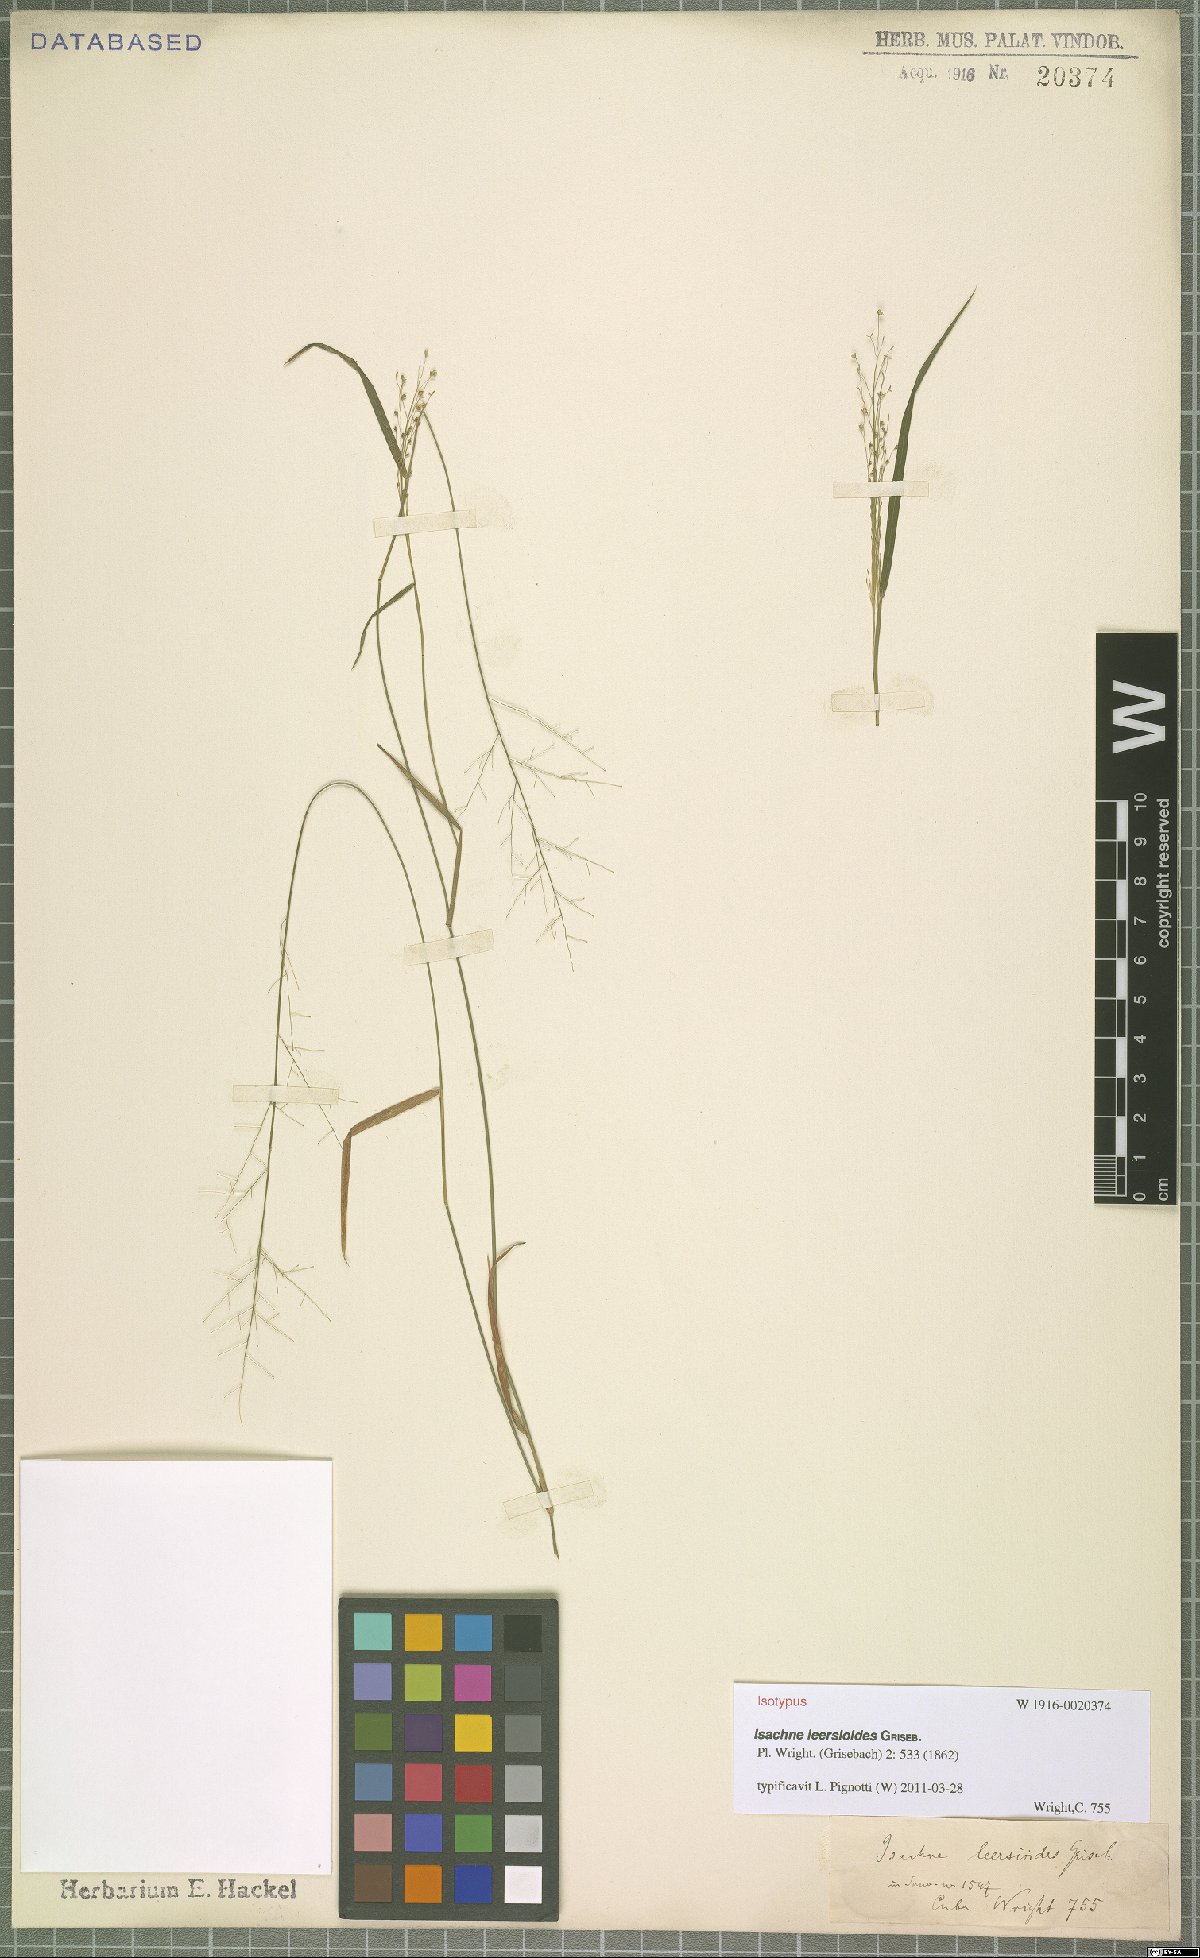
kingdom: Plantae
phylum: Tracheophyta
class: Liliopsida
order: Poales
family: Poaceae
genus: Isachne
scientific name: Isachne leersioides
